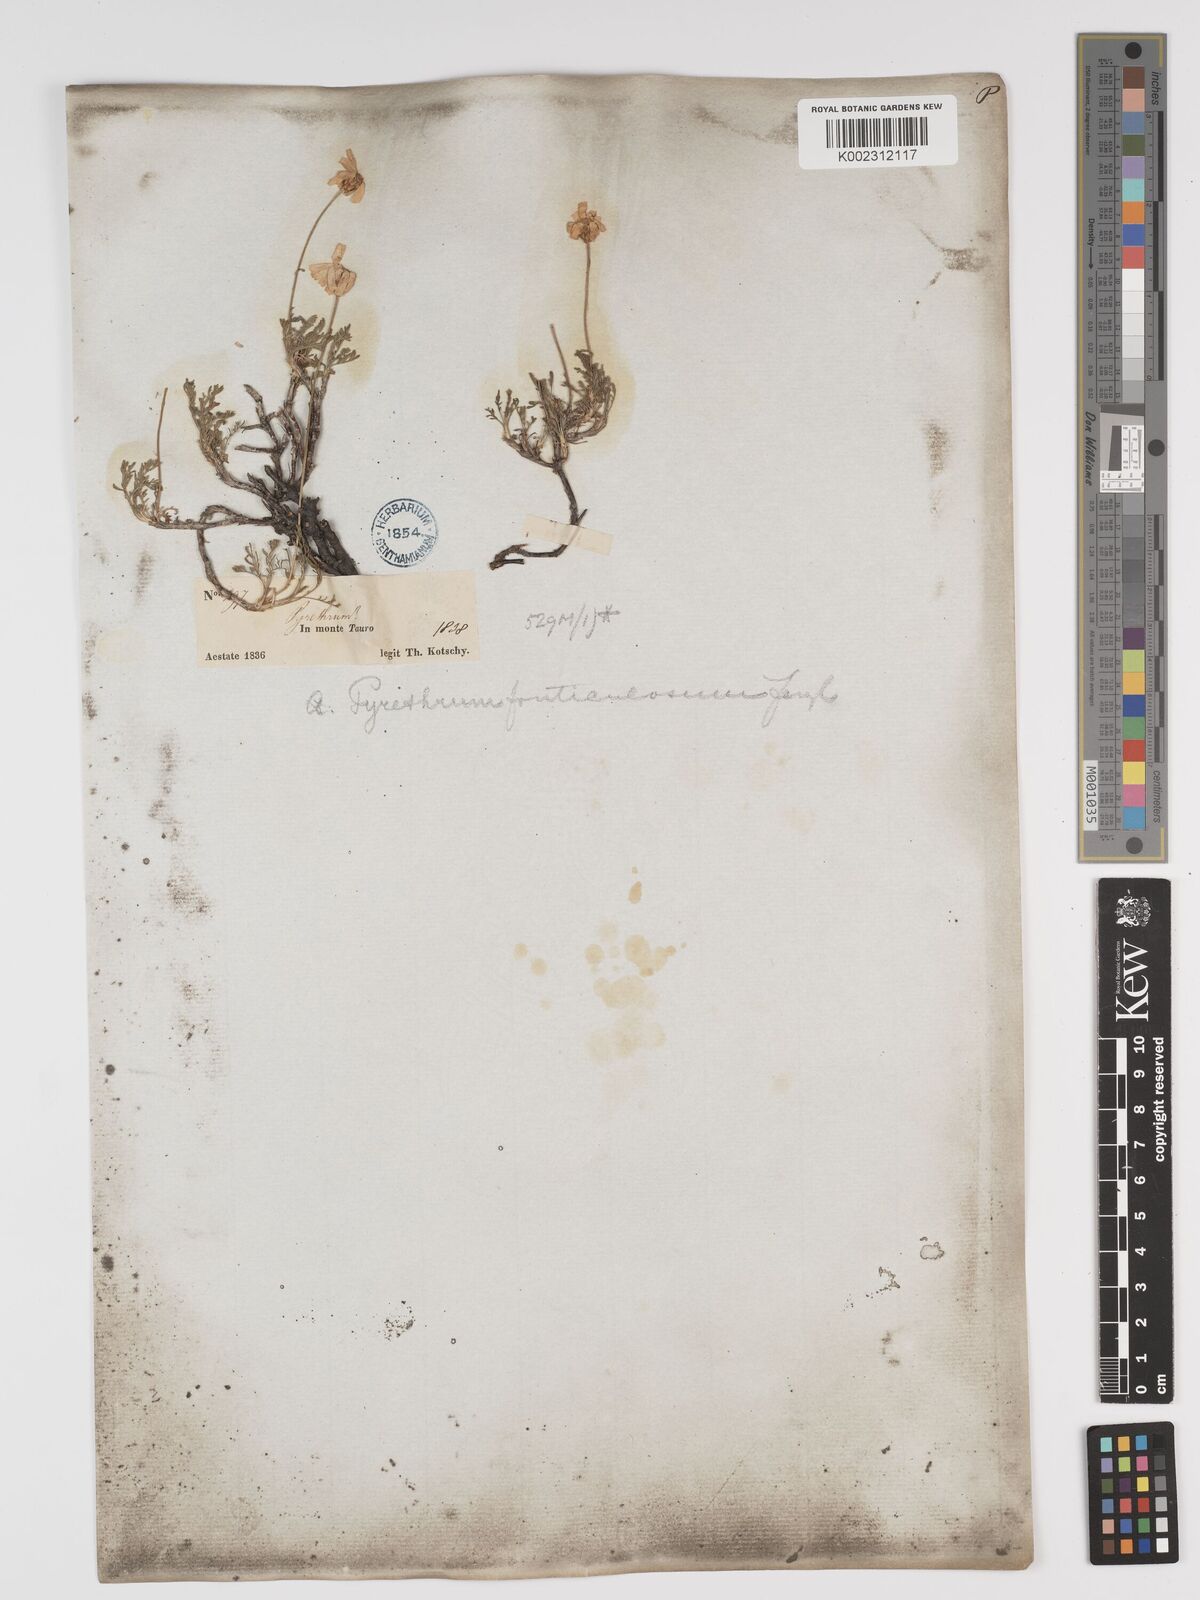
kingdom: Plantae
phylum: Tracheophyta
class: Magnoliopsida
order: Asterales
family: Asteraceae
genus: Ajania
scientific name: Ajania fruticulosa
